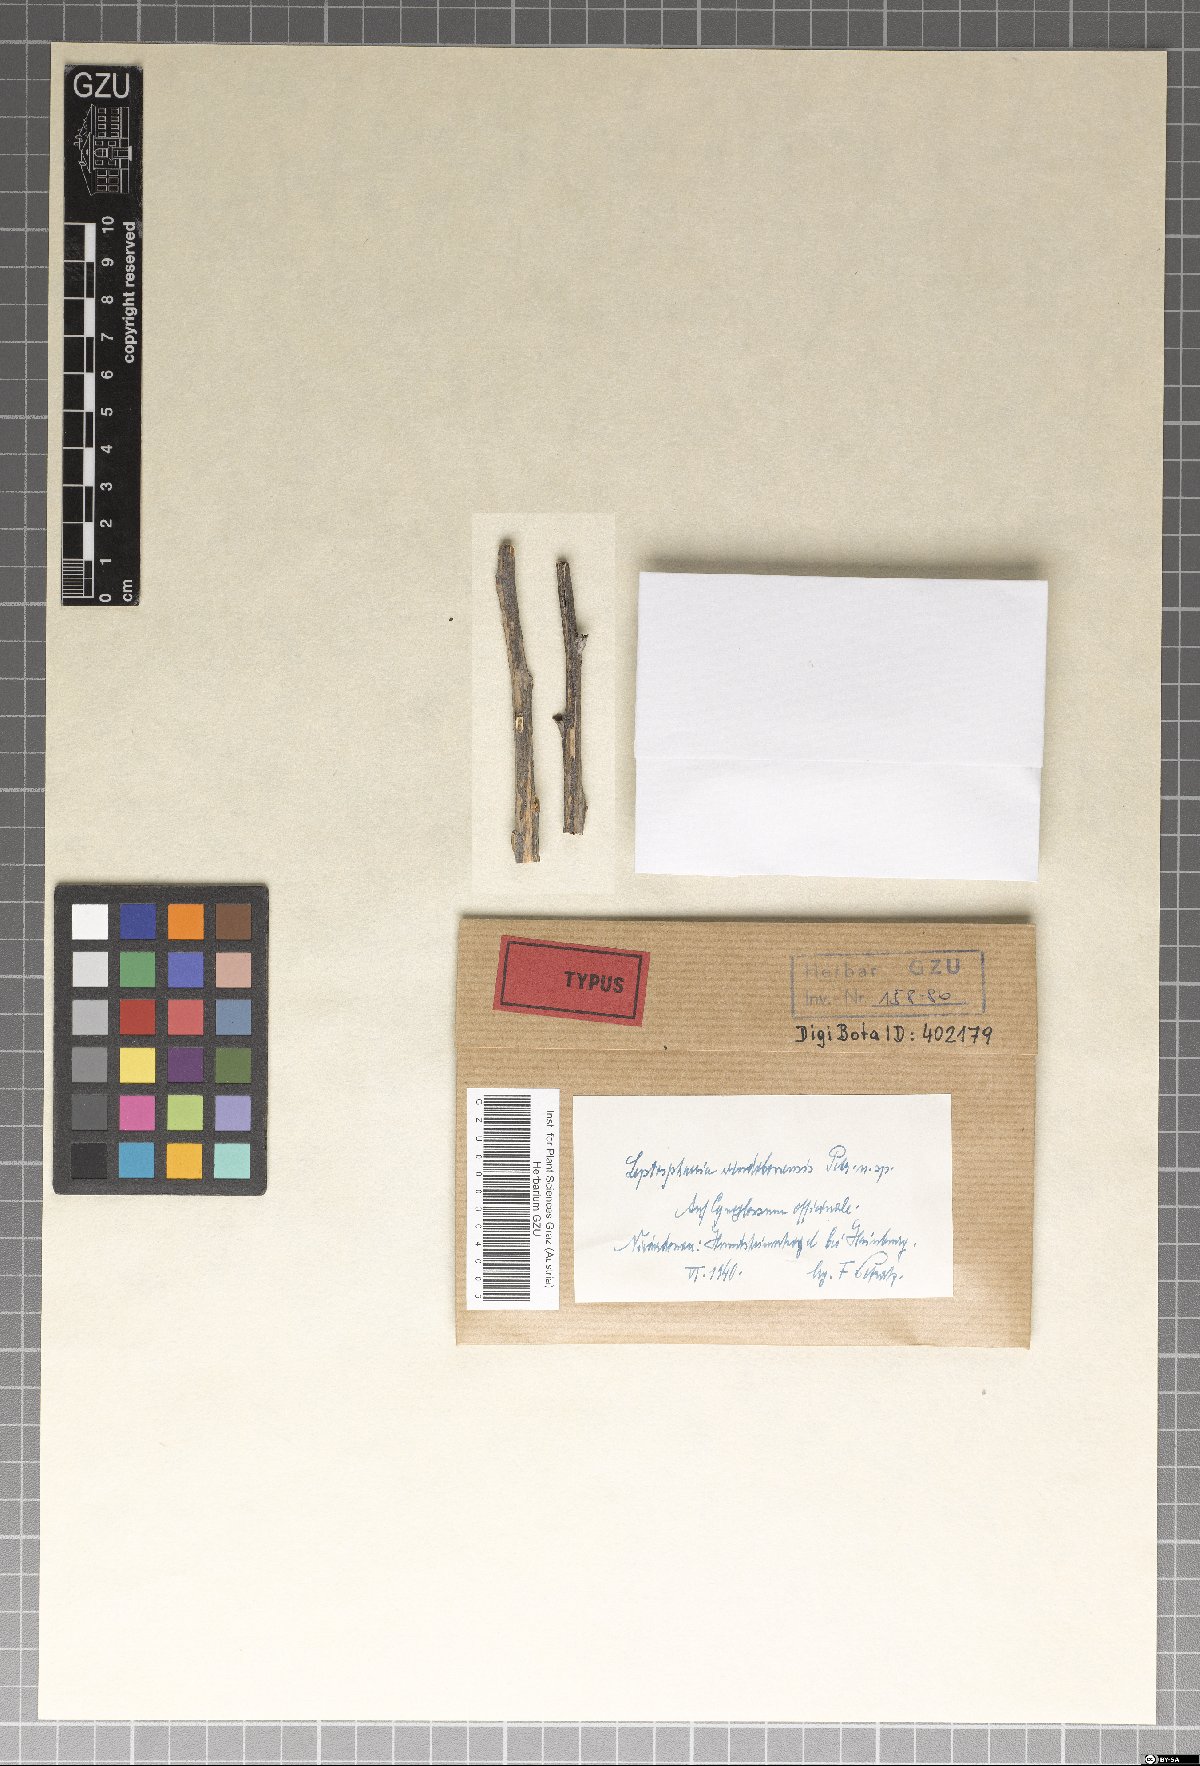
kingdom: Fungi
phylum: Ascomycota
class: Dothideomycetes
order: Pleosporales
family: Leptosphaeriaceae
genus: Leptosphaeria
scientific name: Leptosphaeria vindobonensis
